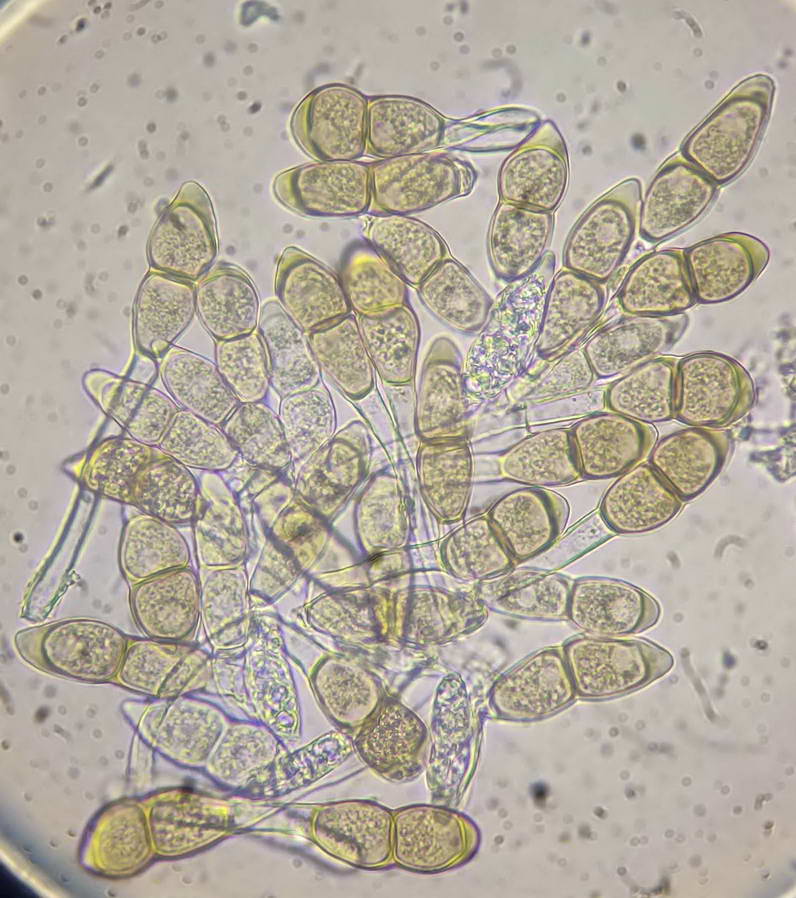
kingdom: Fungi
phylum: Basidiomycota
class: Pucciniomycetes
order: Pucciniales
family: Pucciniaceae
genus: Puccinia
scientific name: Puccinia veronicae
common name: Wood speedwell rust
